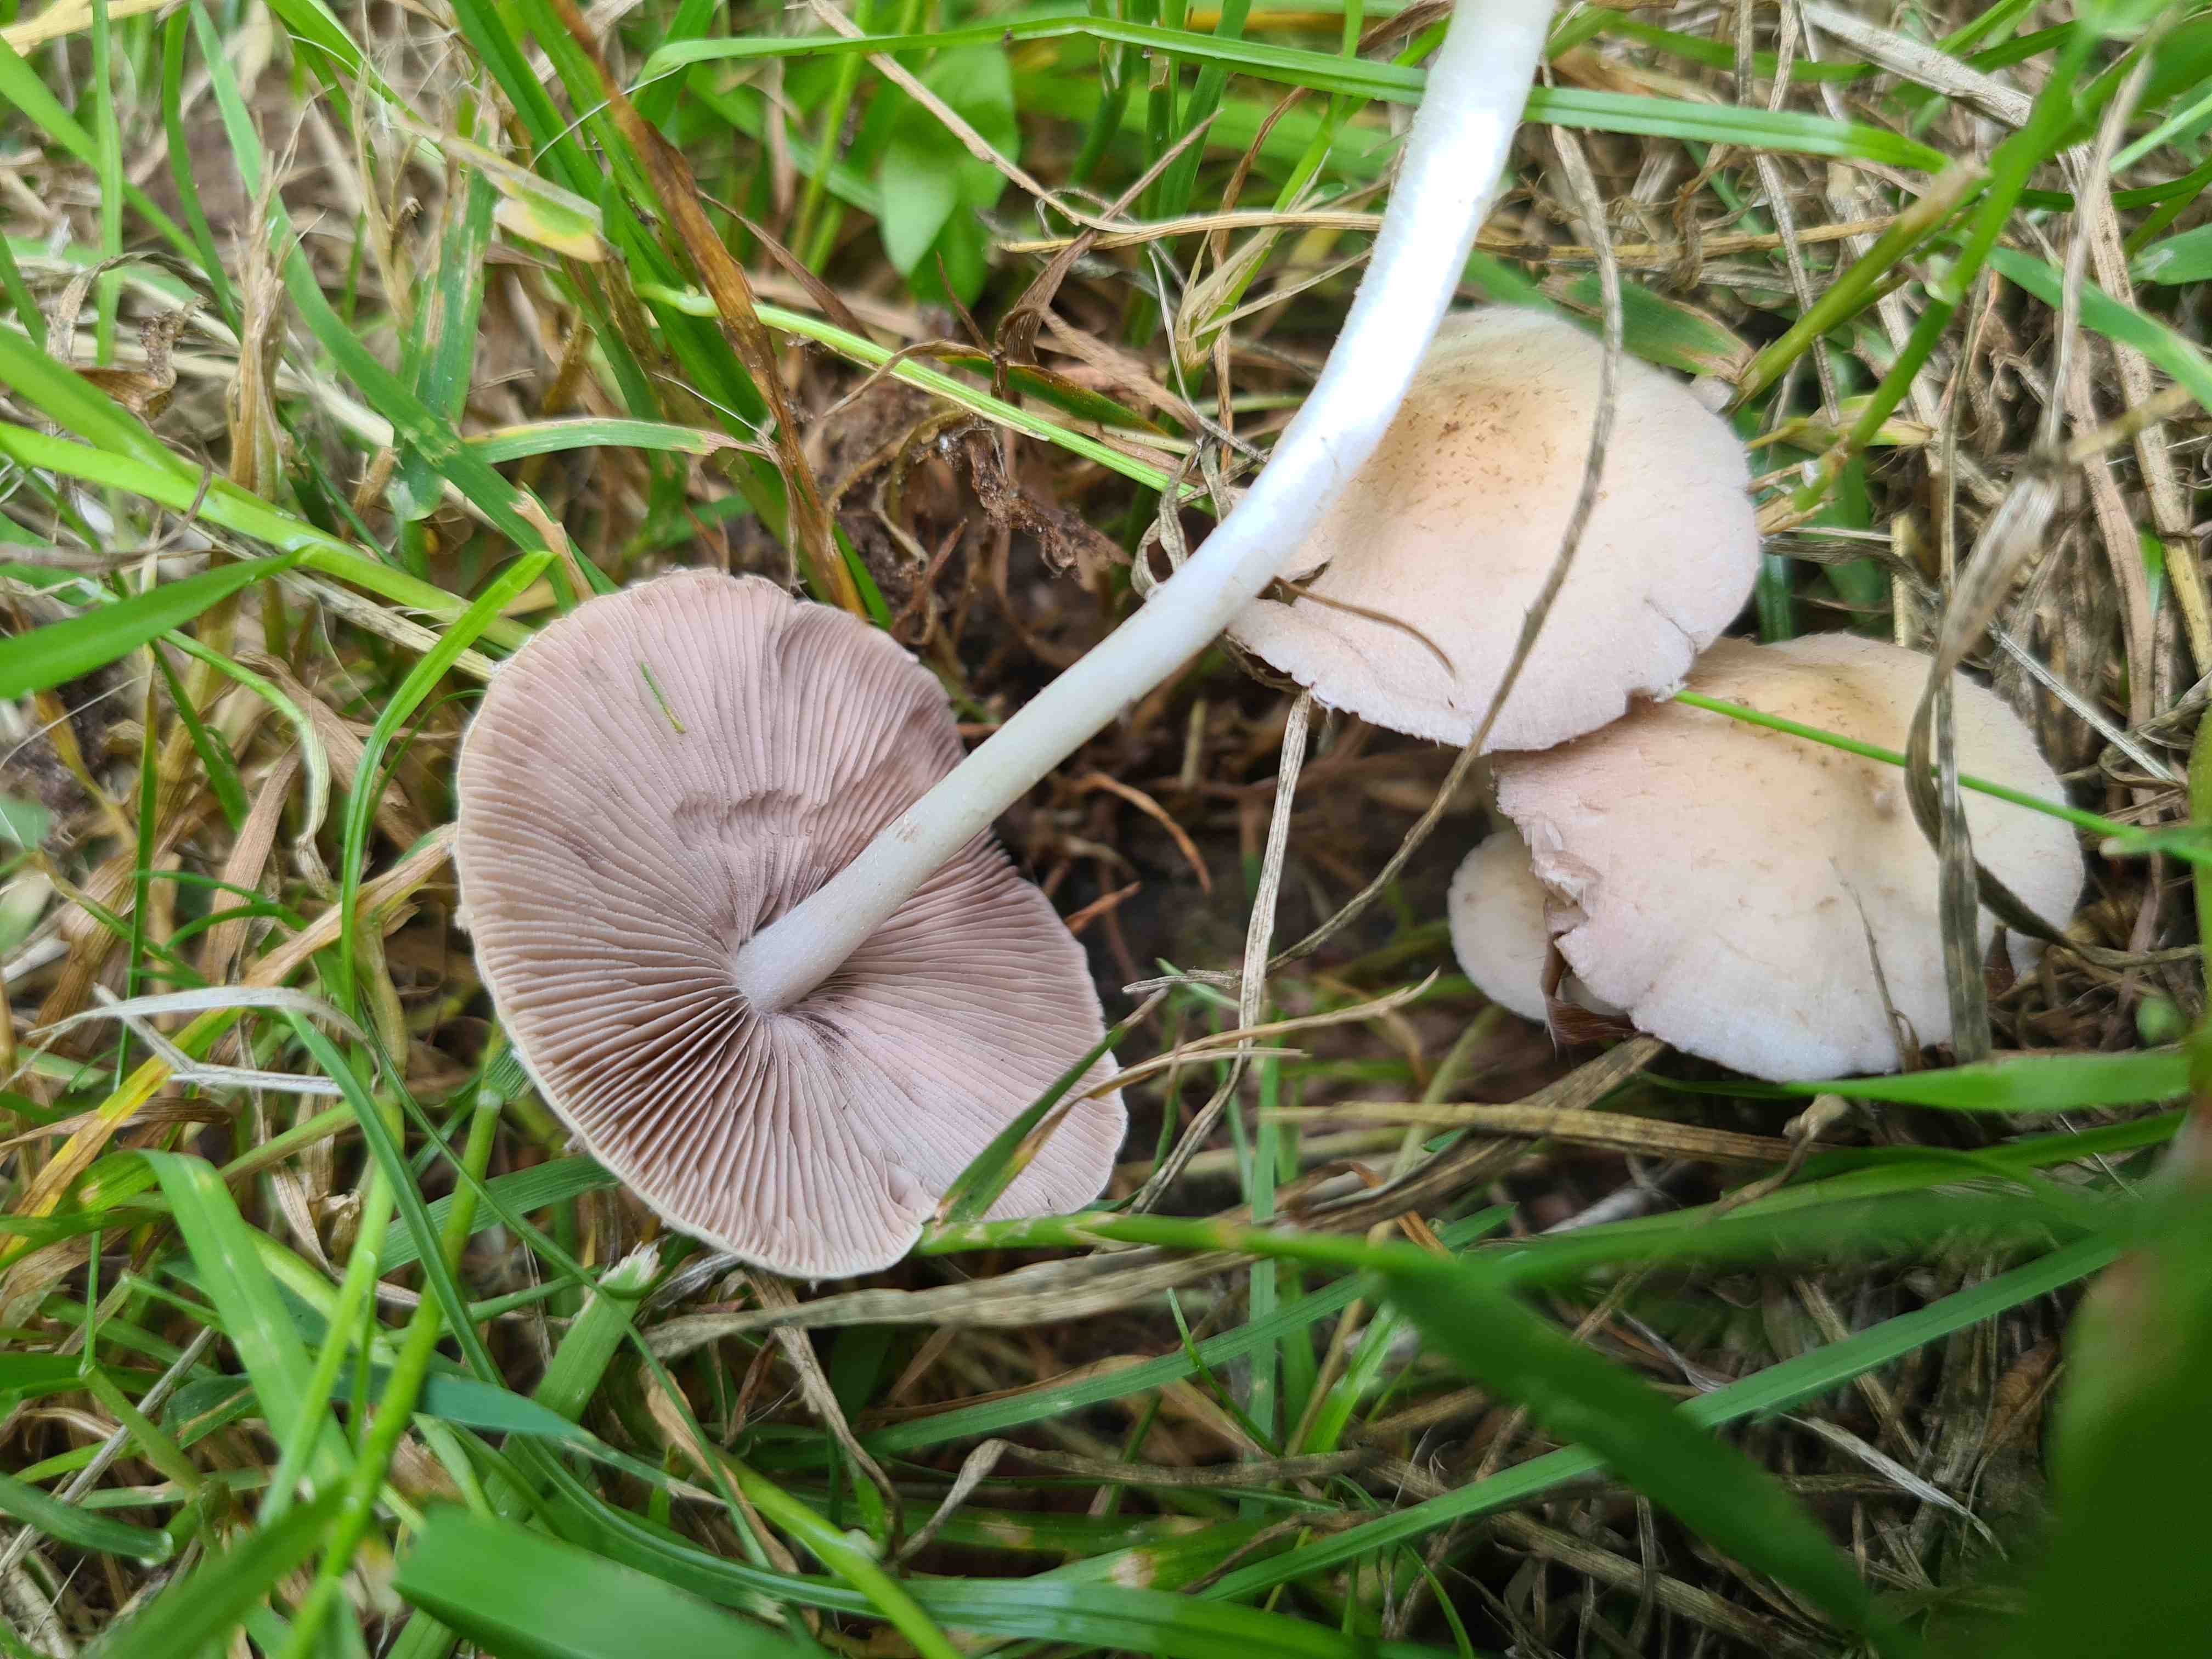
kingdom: Fungi
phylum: Basidiomycota
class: Agaricomycetes
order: Agaricales
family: Psathyrellaceae
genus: Candolleomyces
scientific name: Candolleomyces candolleanus
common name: Candolles mørkhat
